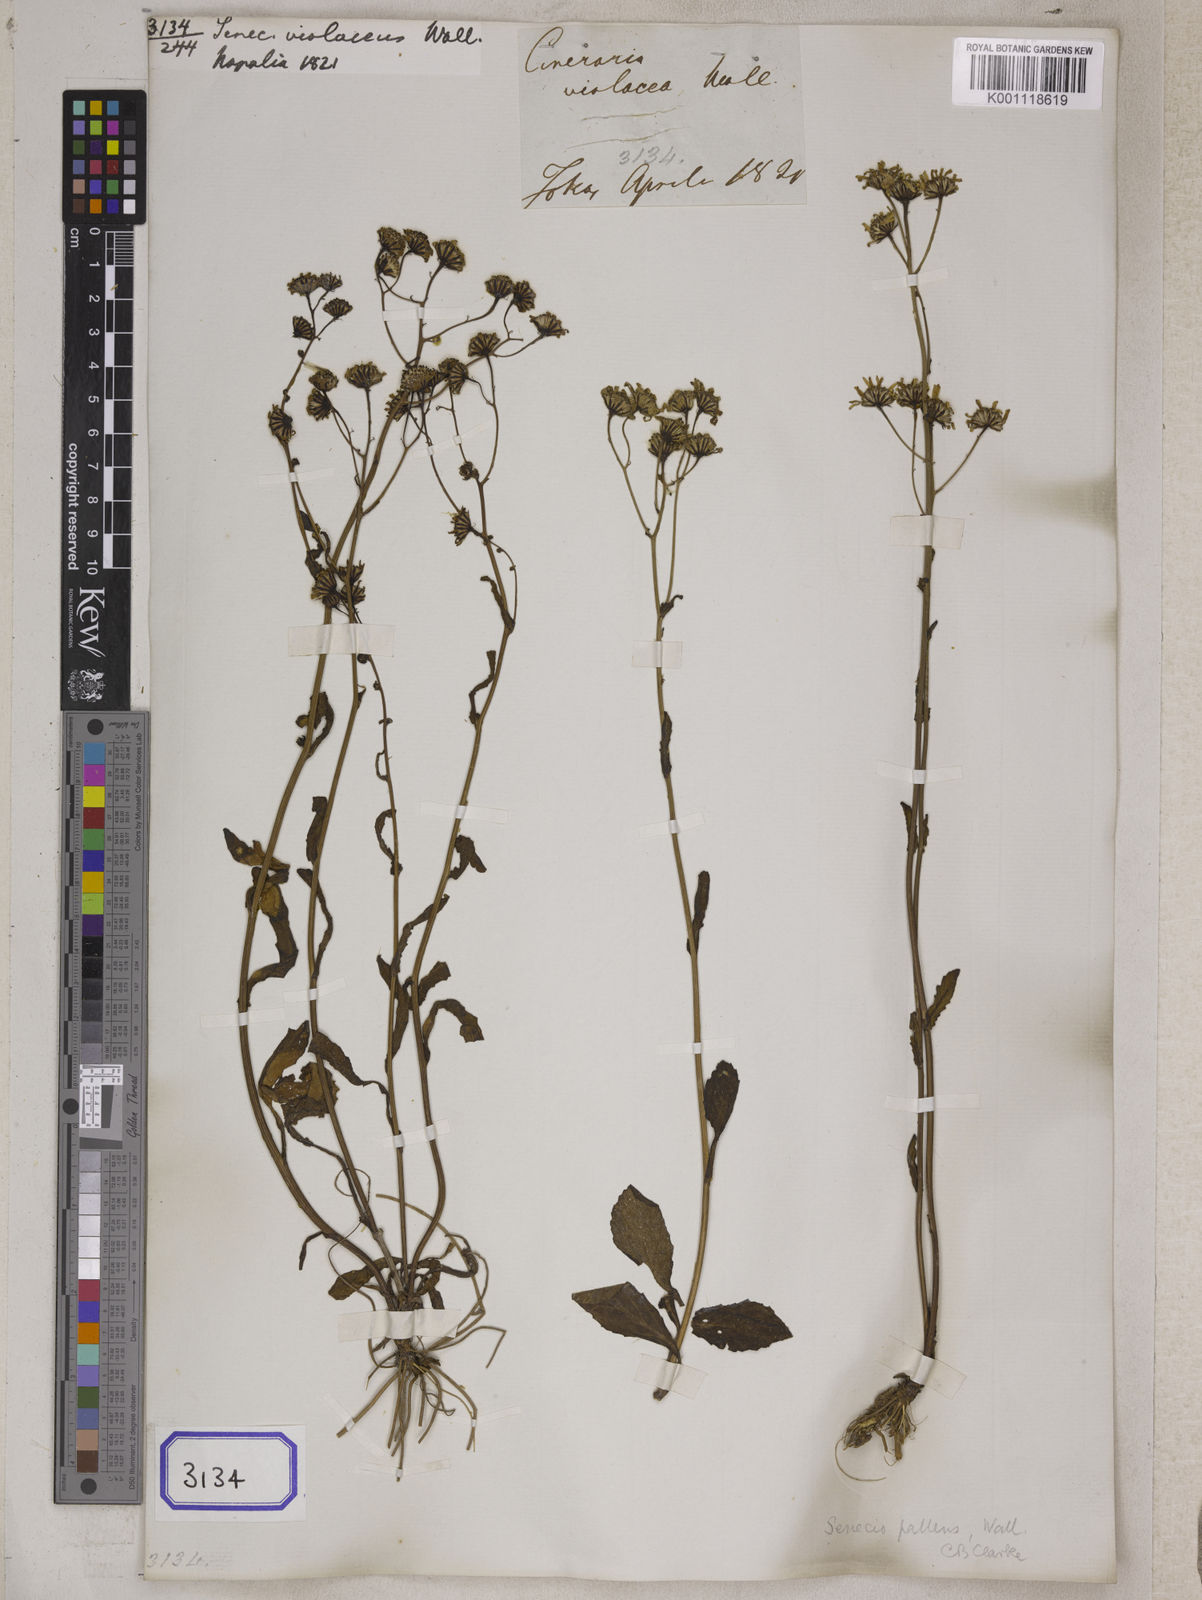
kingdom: Plantae
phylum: Tracheophyta
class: Magnoliopsida
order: Asterales
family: Asteraceae
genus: Jacobaea
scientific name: Jacobaea nudicaulis
